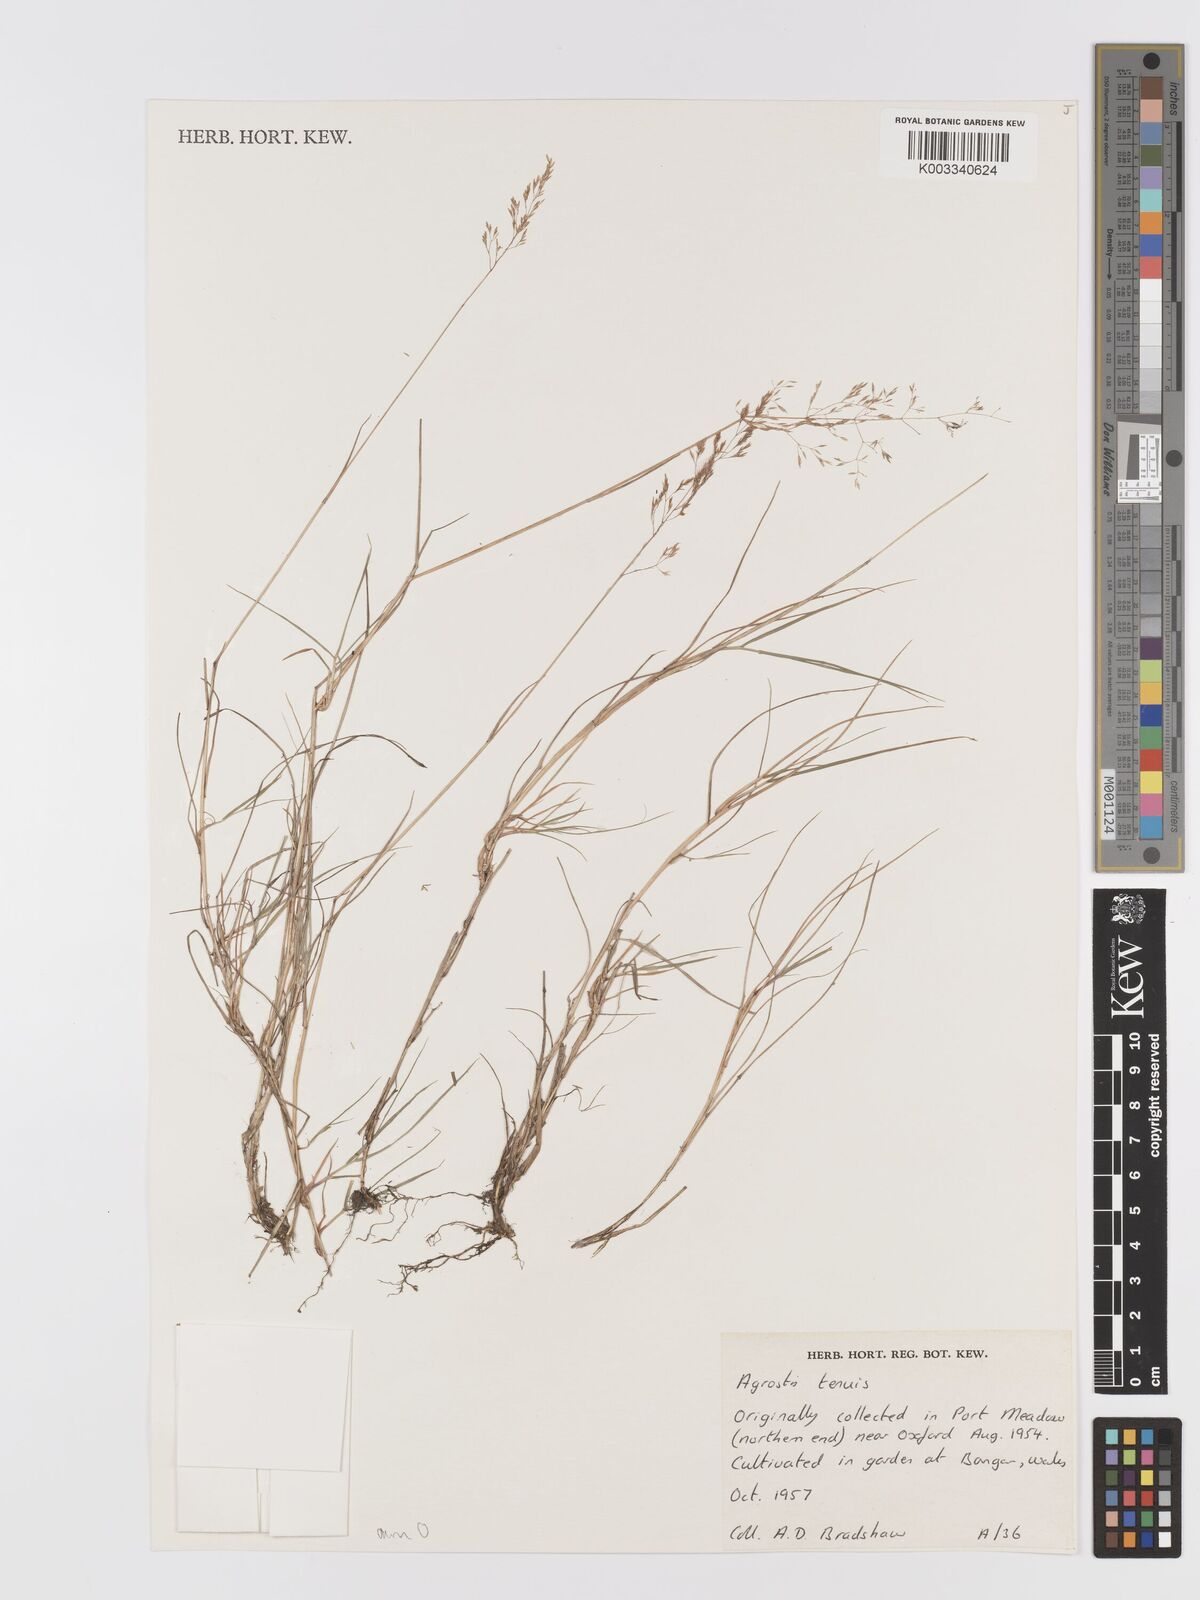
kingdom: Plantae
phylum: Tracheophyta
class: Liliopsida
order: Poales
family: Poaceae
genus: Agrostis
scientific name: Agrostis capillaris
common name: Colonial bentgrass
